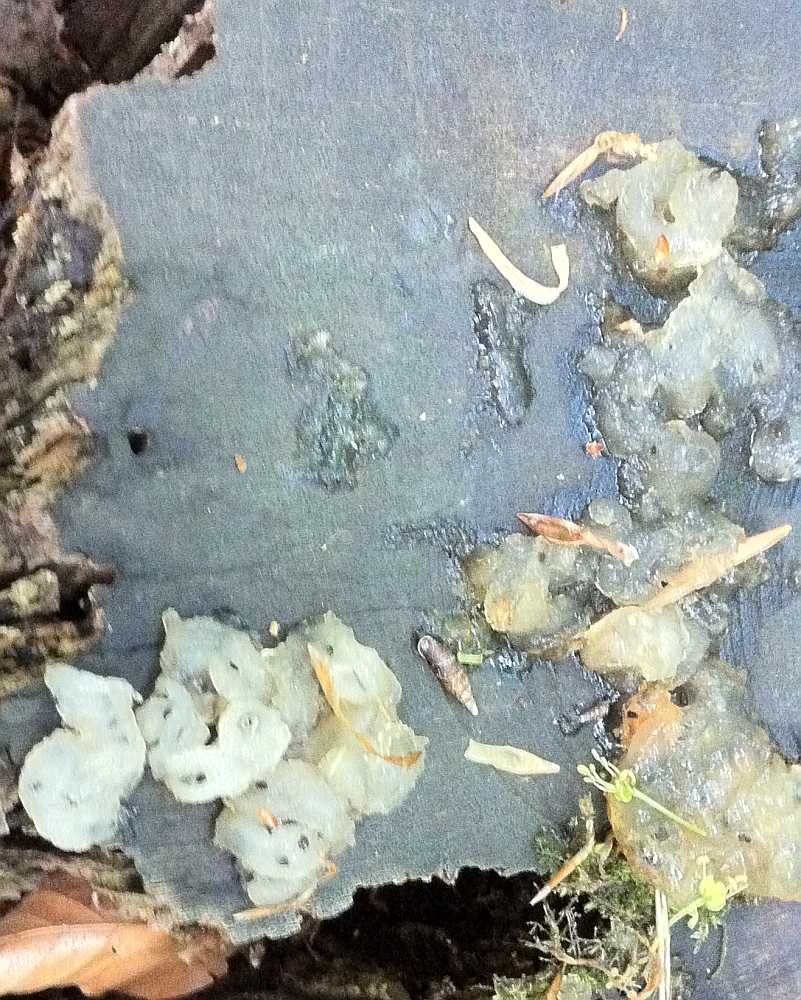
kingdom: Fungi
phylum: Basidiomycota
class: Agaricomycetes
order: Auriculariales
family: Hyaloriaceae
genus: Myxarium
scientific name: Myxarium nucleatum
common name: klar bævretop
